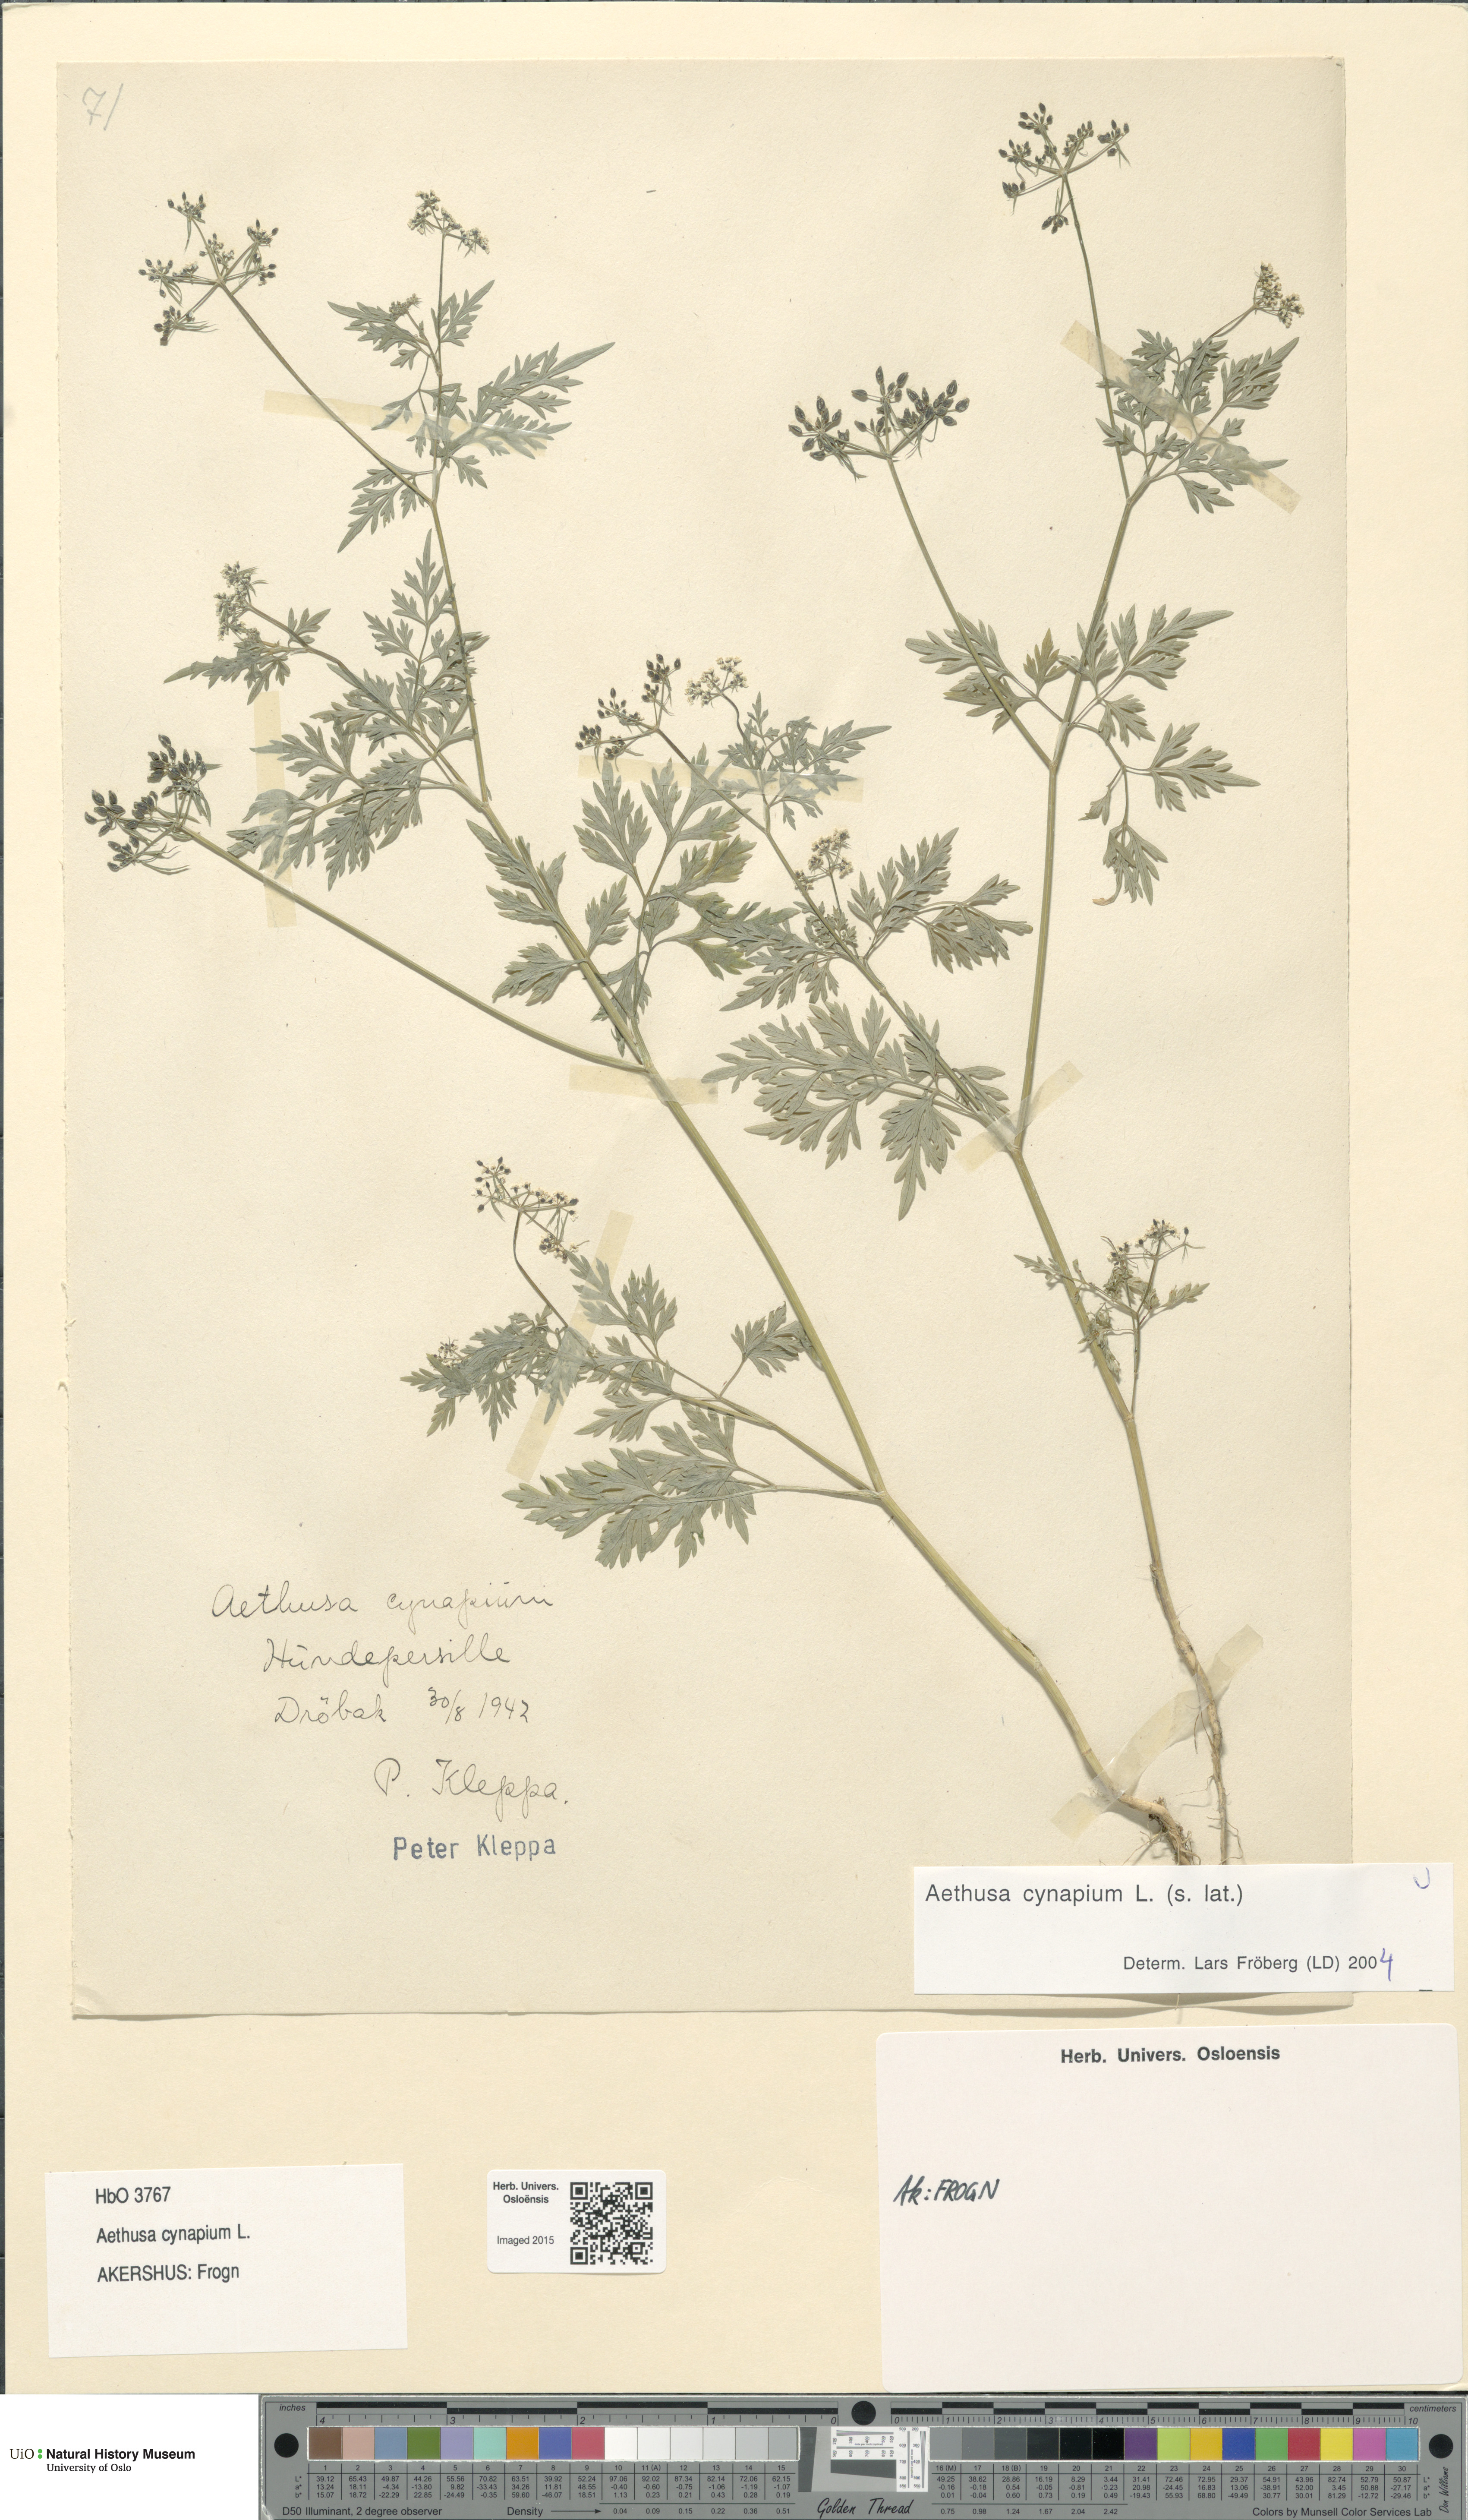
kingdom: Plantae
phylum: Tracheophyta
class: Magnoliopsida
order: Apiales
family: Apiaceae
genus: Aethusa
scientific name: Aethusa cynapium
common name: Fool's parsley
